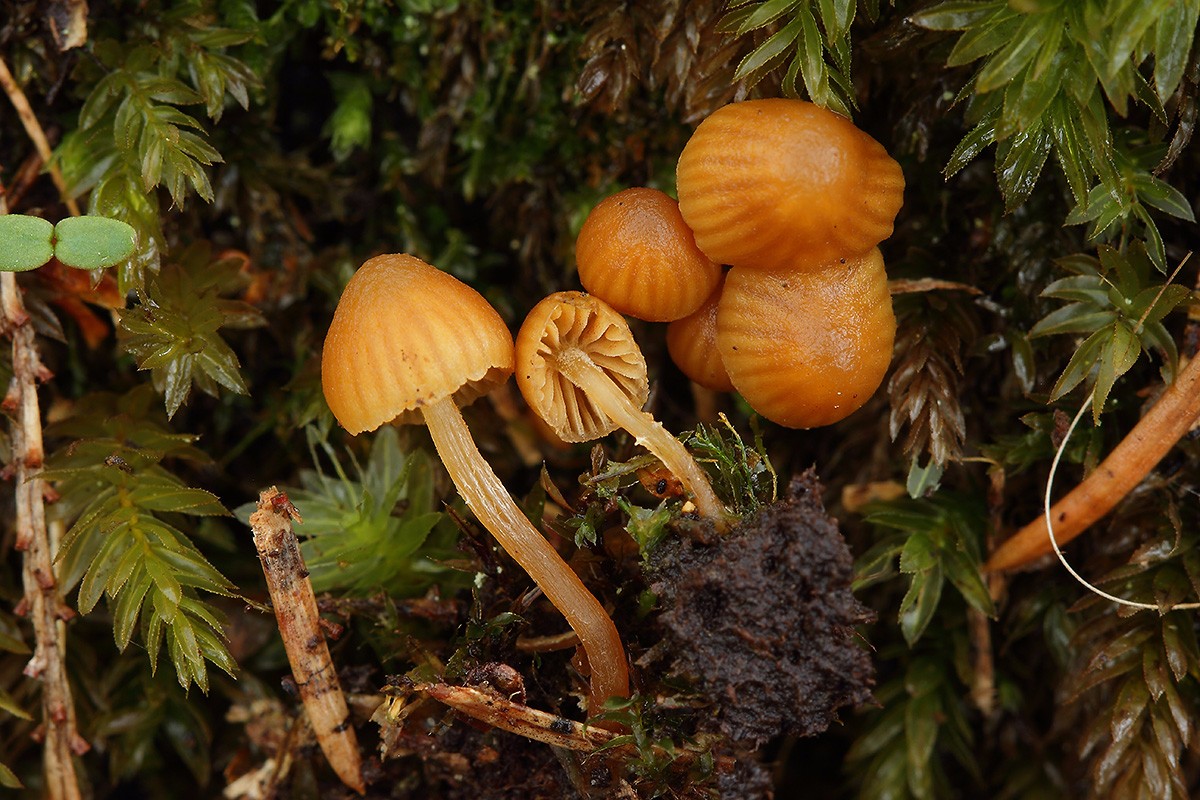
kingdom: Fungi
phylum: Basidiomycota
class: Agaricomycetes
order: Agaricales
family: Hymenogastraceae
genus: Galerina
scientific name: Galerina hypnorum
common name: mos-hjelmhat
